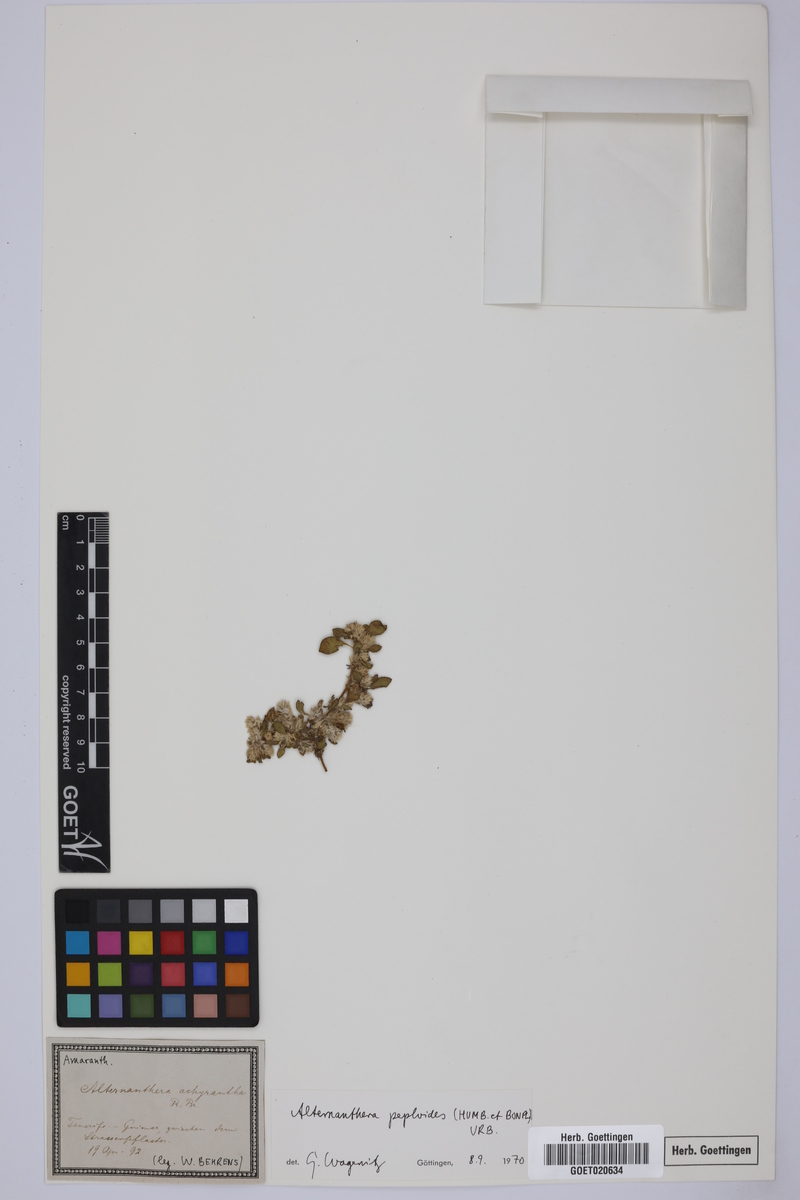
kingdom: Plantae
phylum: Tracheophyta
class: Magnoliopsida
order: Caryophyllales
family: Amaranthaceae
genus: Alternanthera
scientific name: Alternanthera caracasana
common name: Washerwoman
